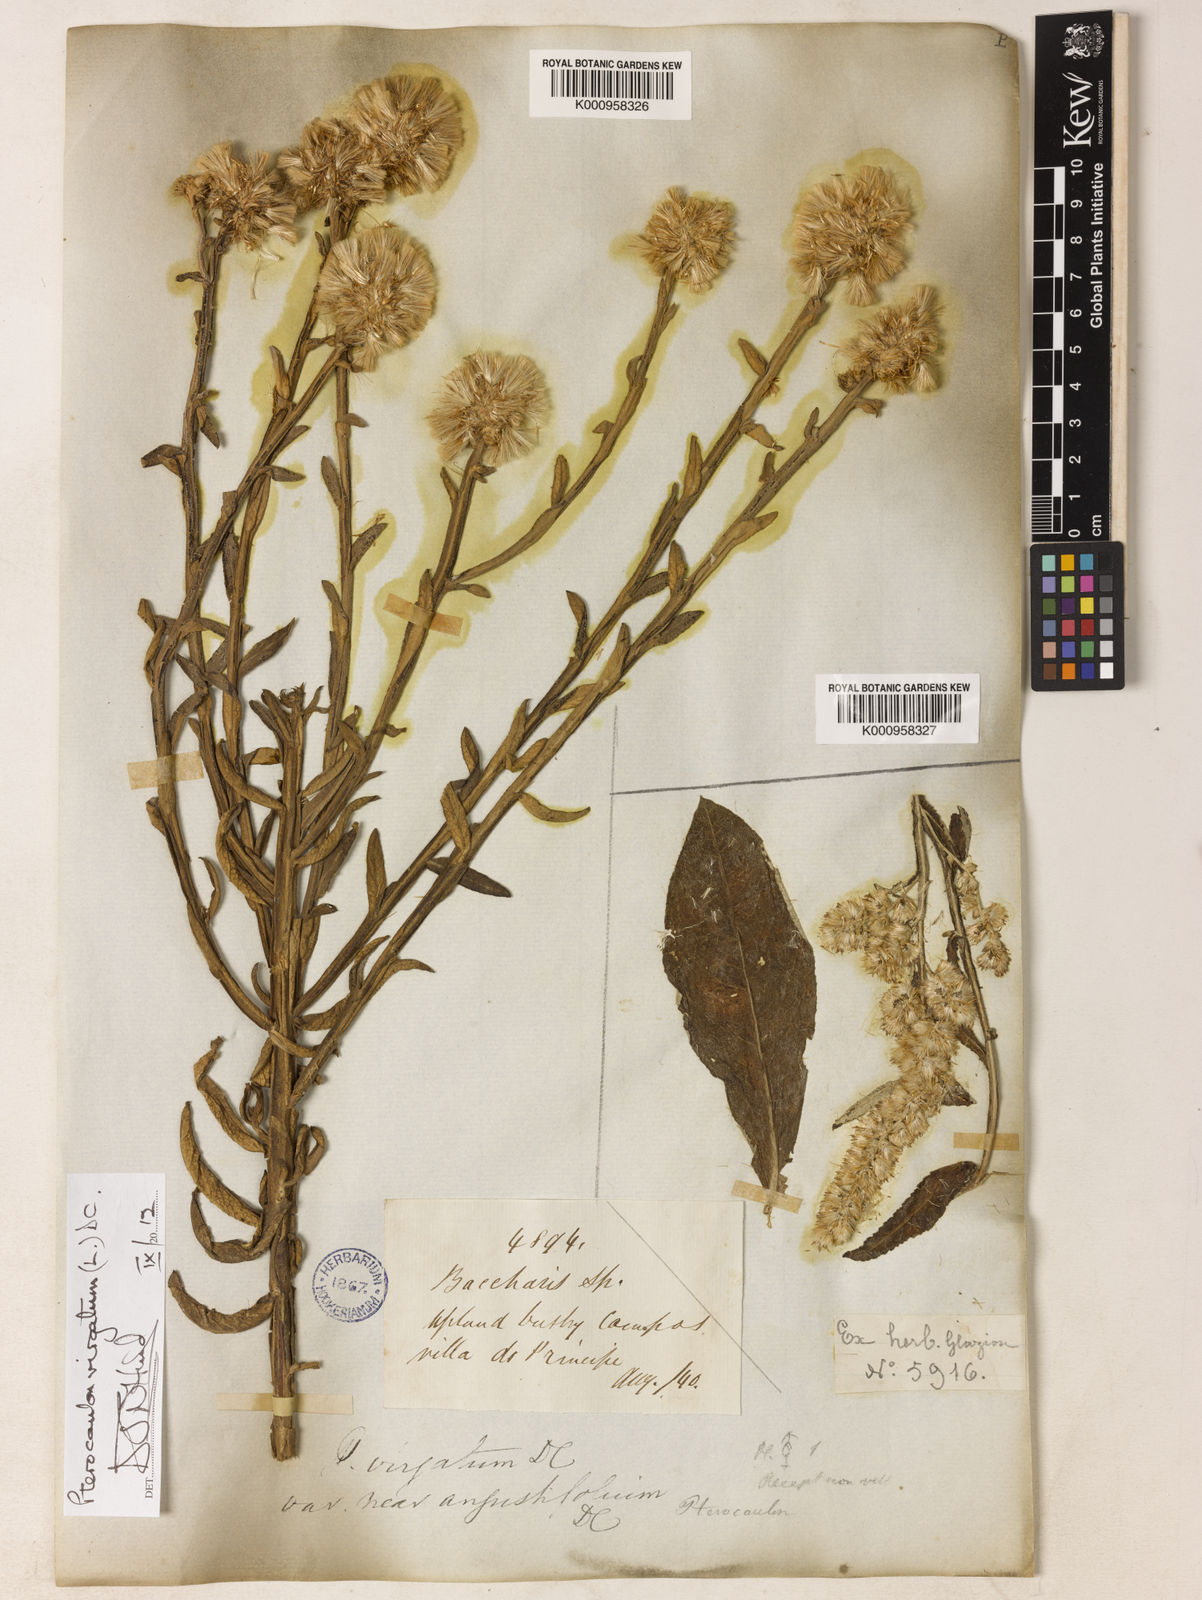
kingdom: Plantae
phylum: Tracheophyta
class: Magnoliopsida
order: Asterales
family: Asteraceae
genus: Pterocaulon
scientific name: Pterocaulon virgatum
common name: Wand blackroot
